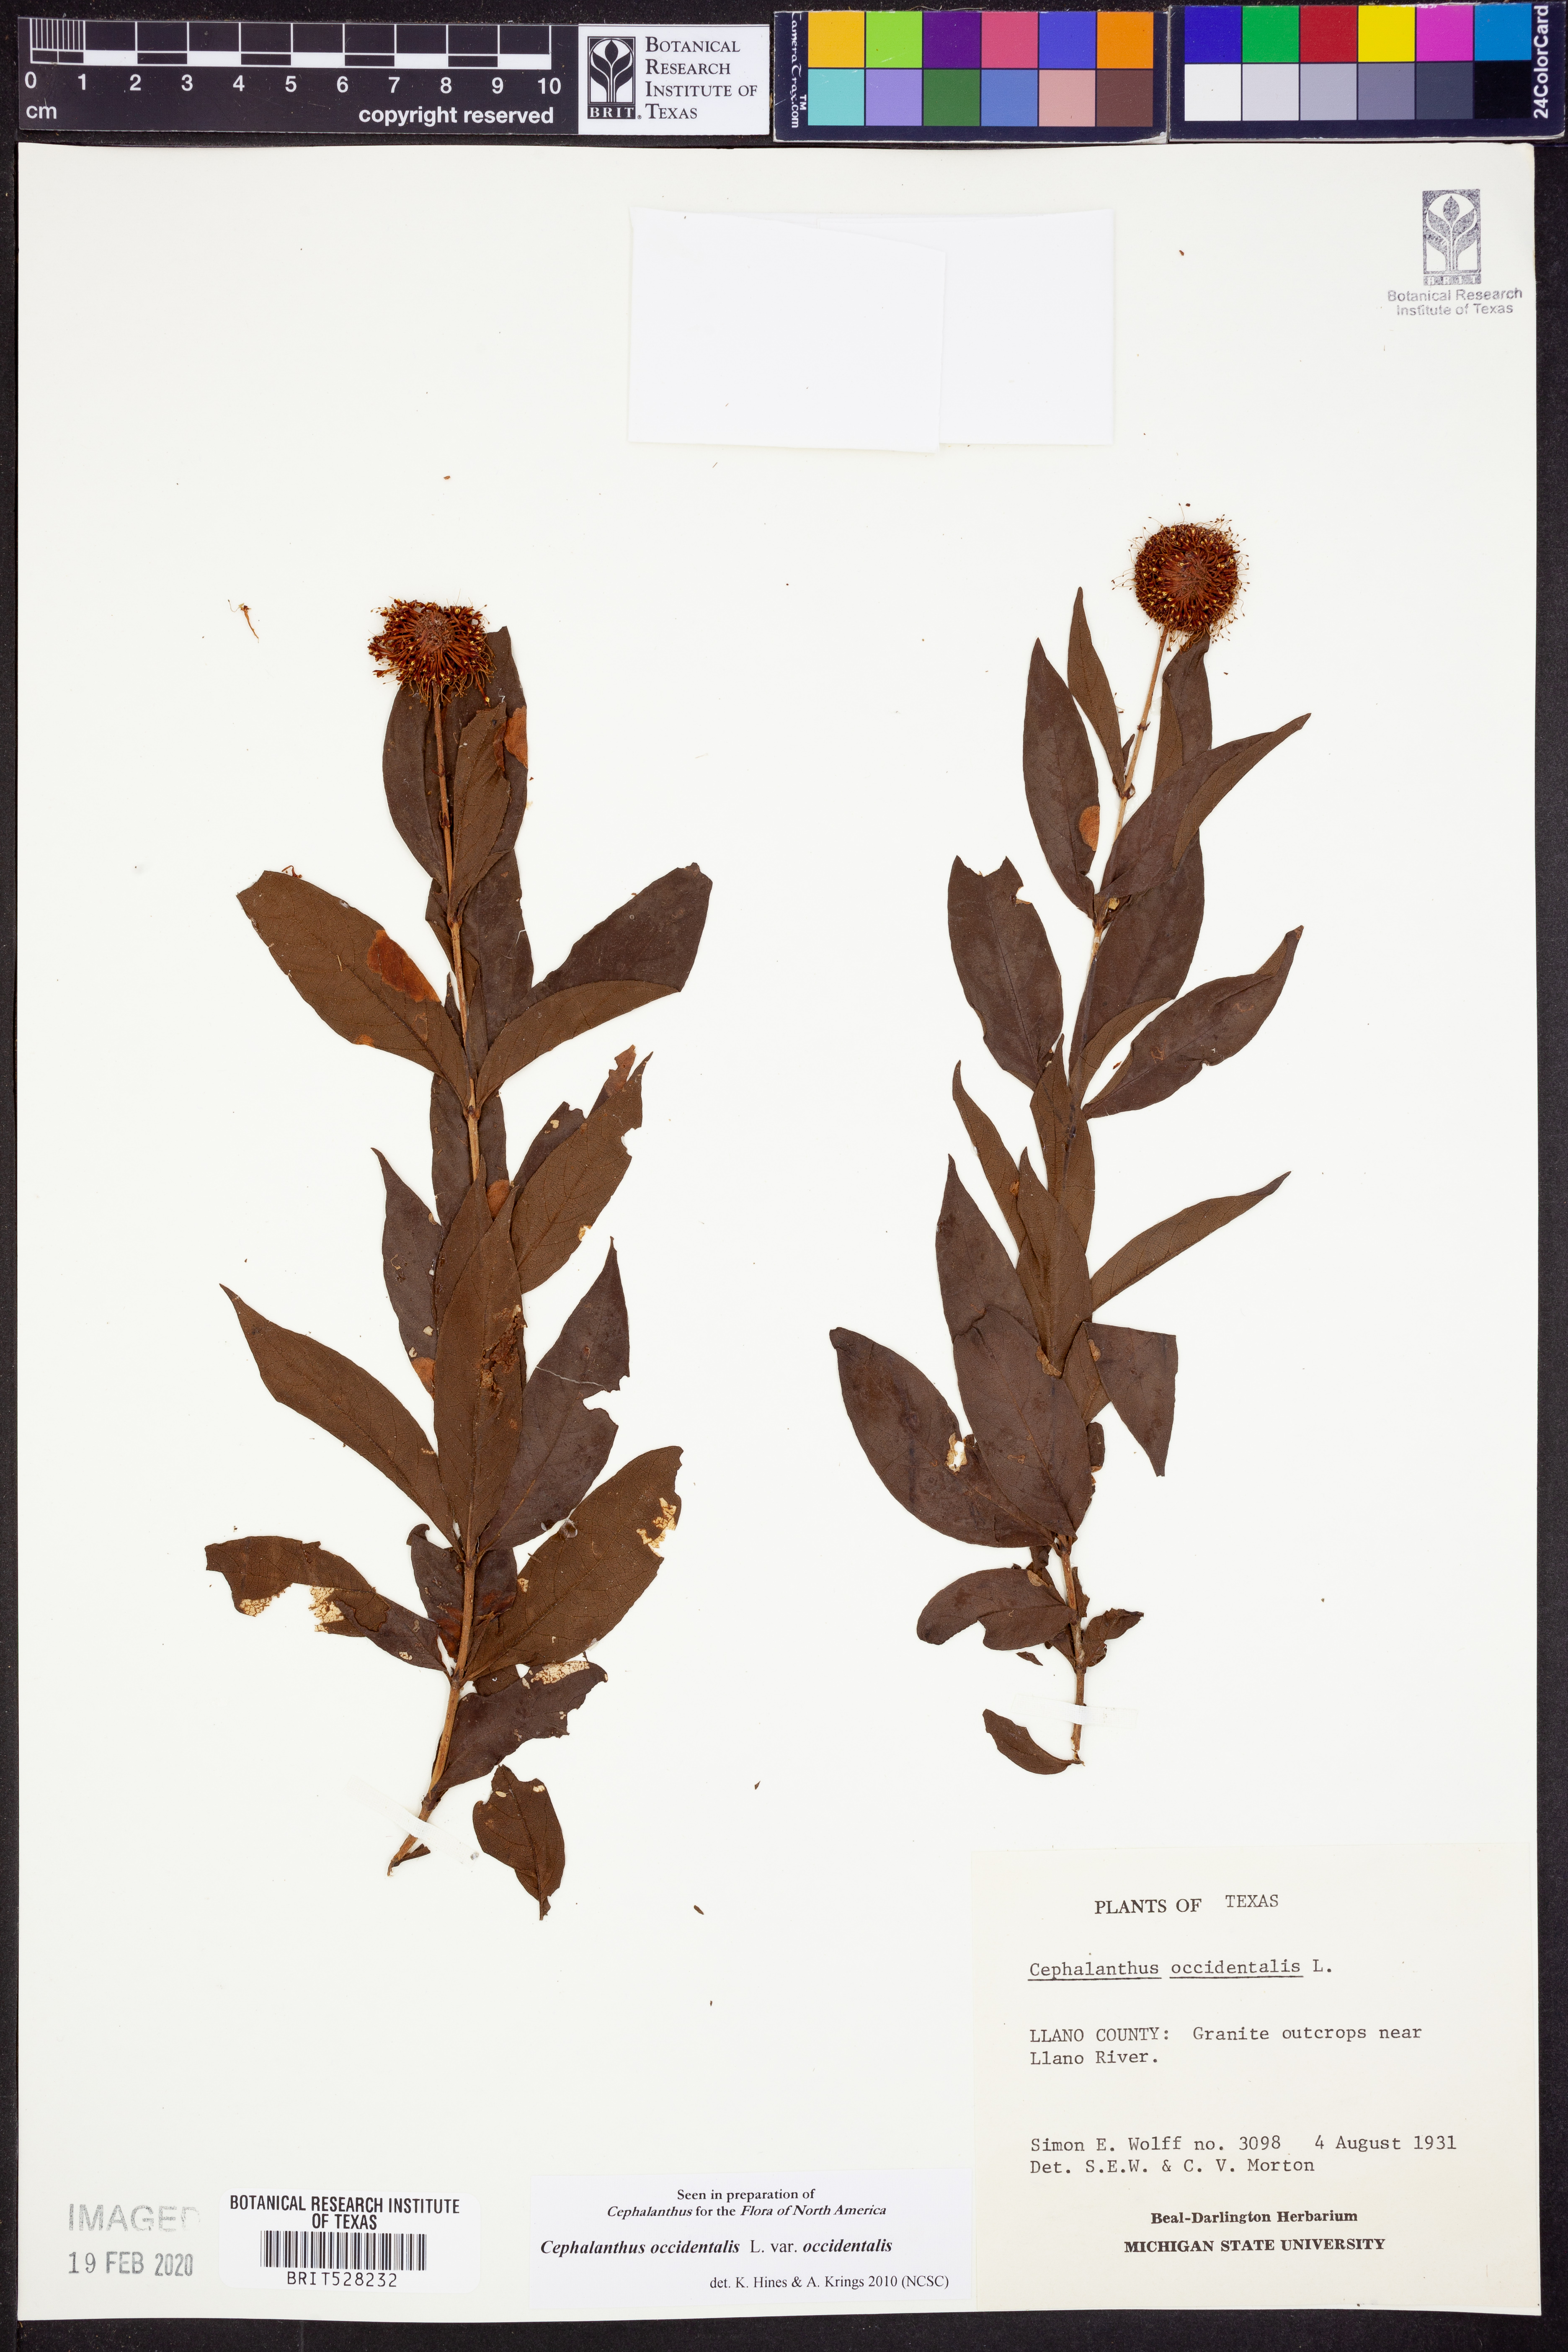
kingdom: Plantae
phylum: Tracheophyta
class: Magnoliopsida
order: Gentianales
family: Rubiaceae
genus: Cephalanthus
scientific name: Cephalanthus occidentalis
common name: Button-willow
